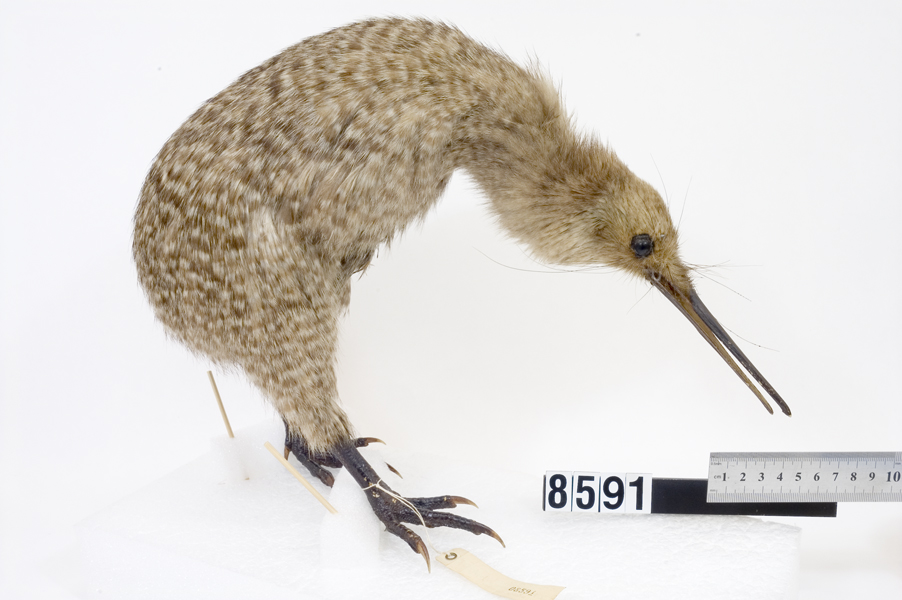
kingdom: Animalia
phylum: Chordata
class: Aves
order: Apterygiformes
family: Apterygidae
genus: Apteryx
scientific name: Apteryx owenii
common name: Little spotted kiwi
